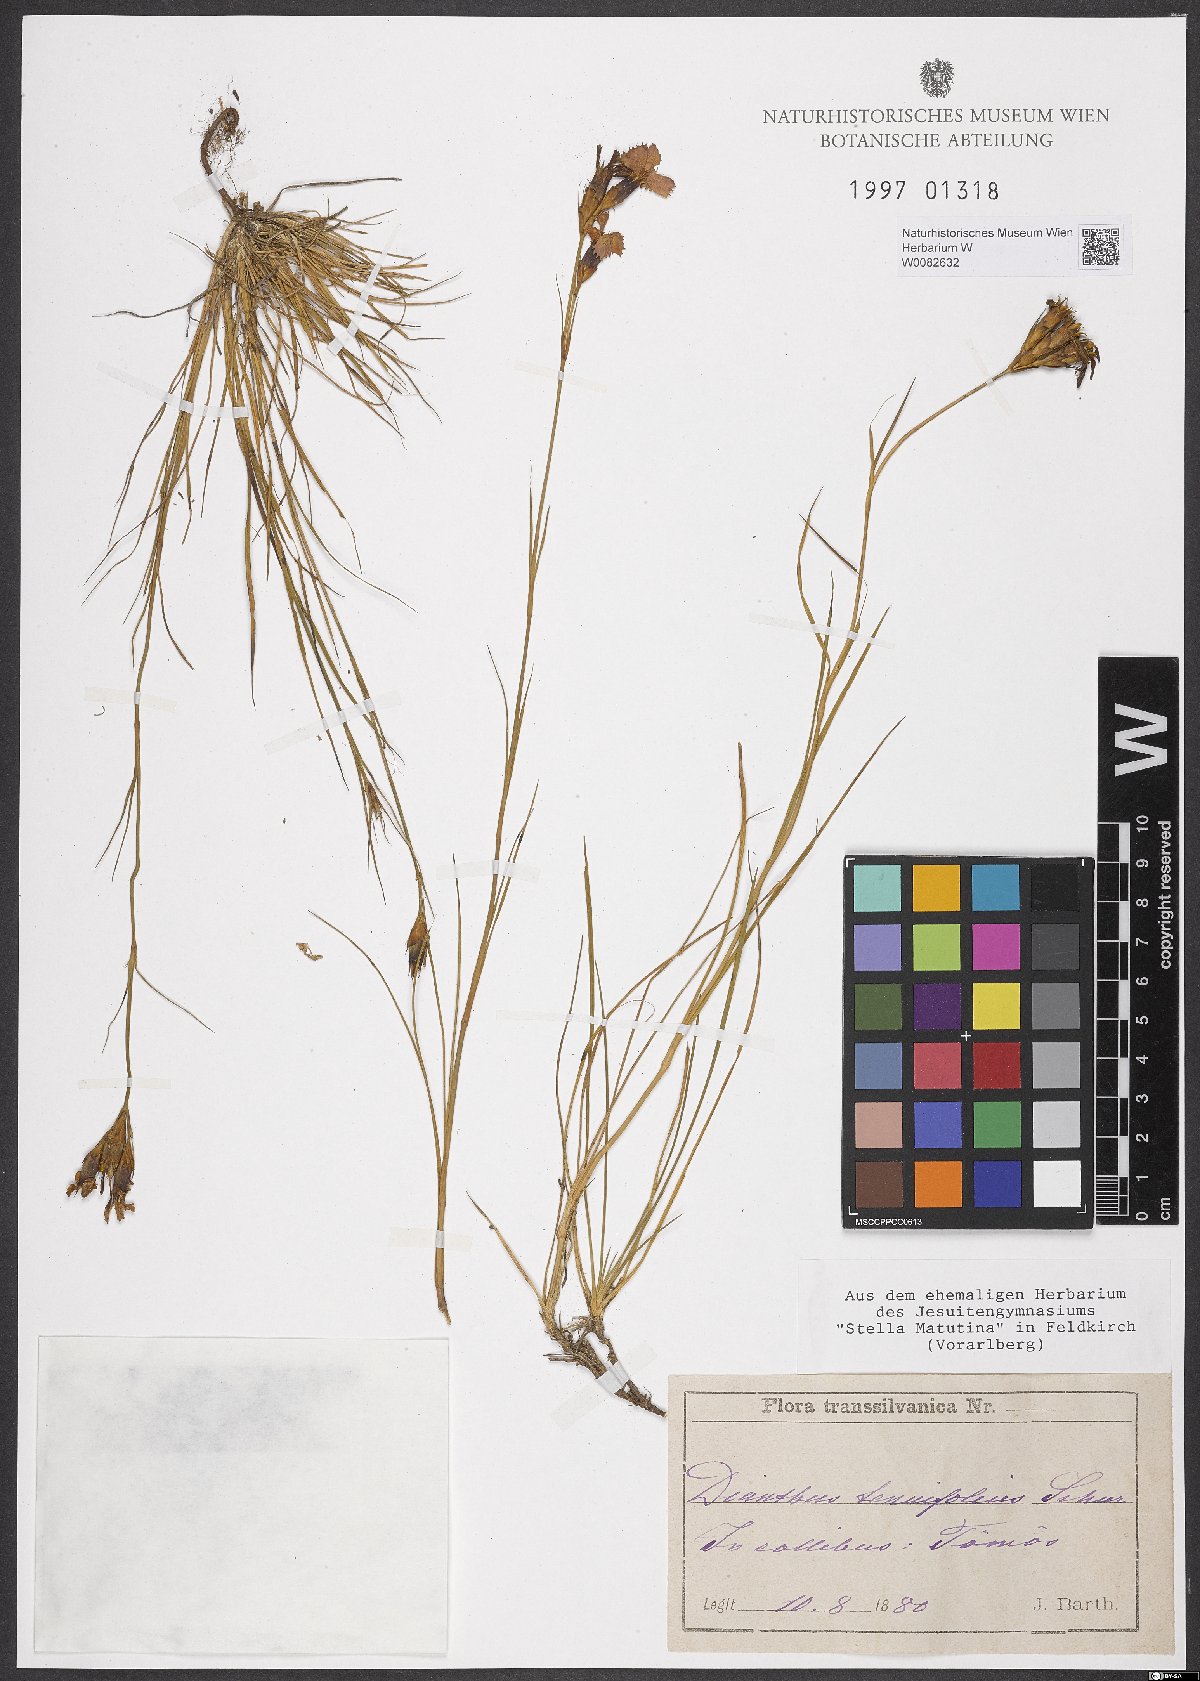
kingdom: Plantae
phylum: Tracheophyta
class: Magnoliopsida
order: Caryophyllales
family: Caryophyllaceae
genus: Dianthus
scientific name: Dianthus carthusianorum
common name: Carthusian pink
